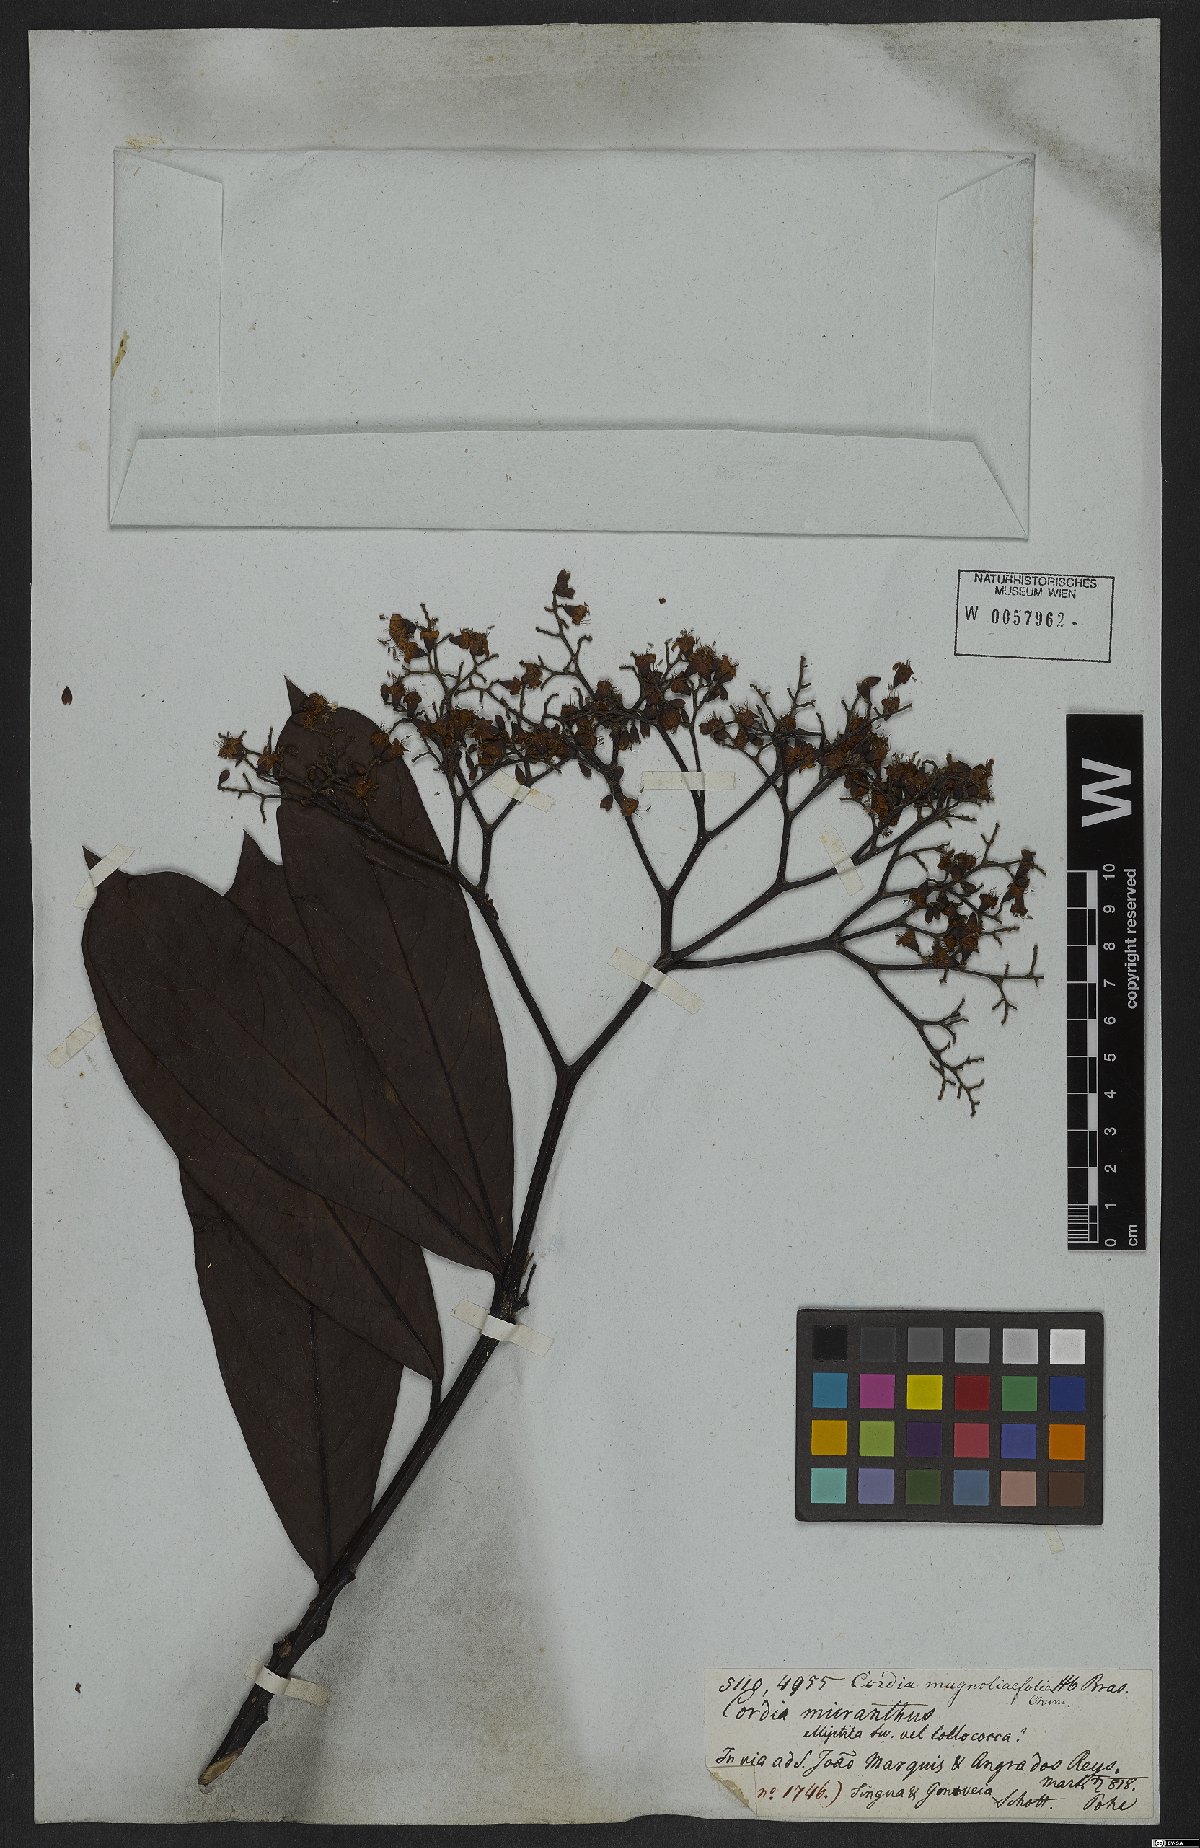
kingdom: Plantae
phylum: Tracheophyta
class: Magnoliopsida
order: Boraginales
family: Cordiaceae
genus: Cordia
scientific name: Cordia magnoliifolia
